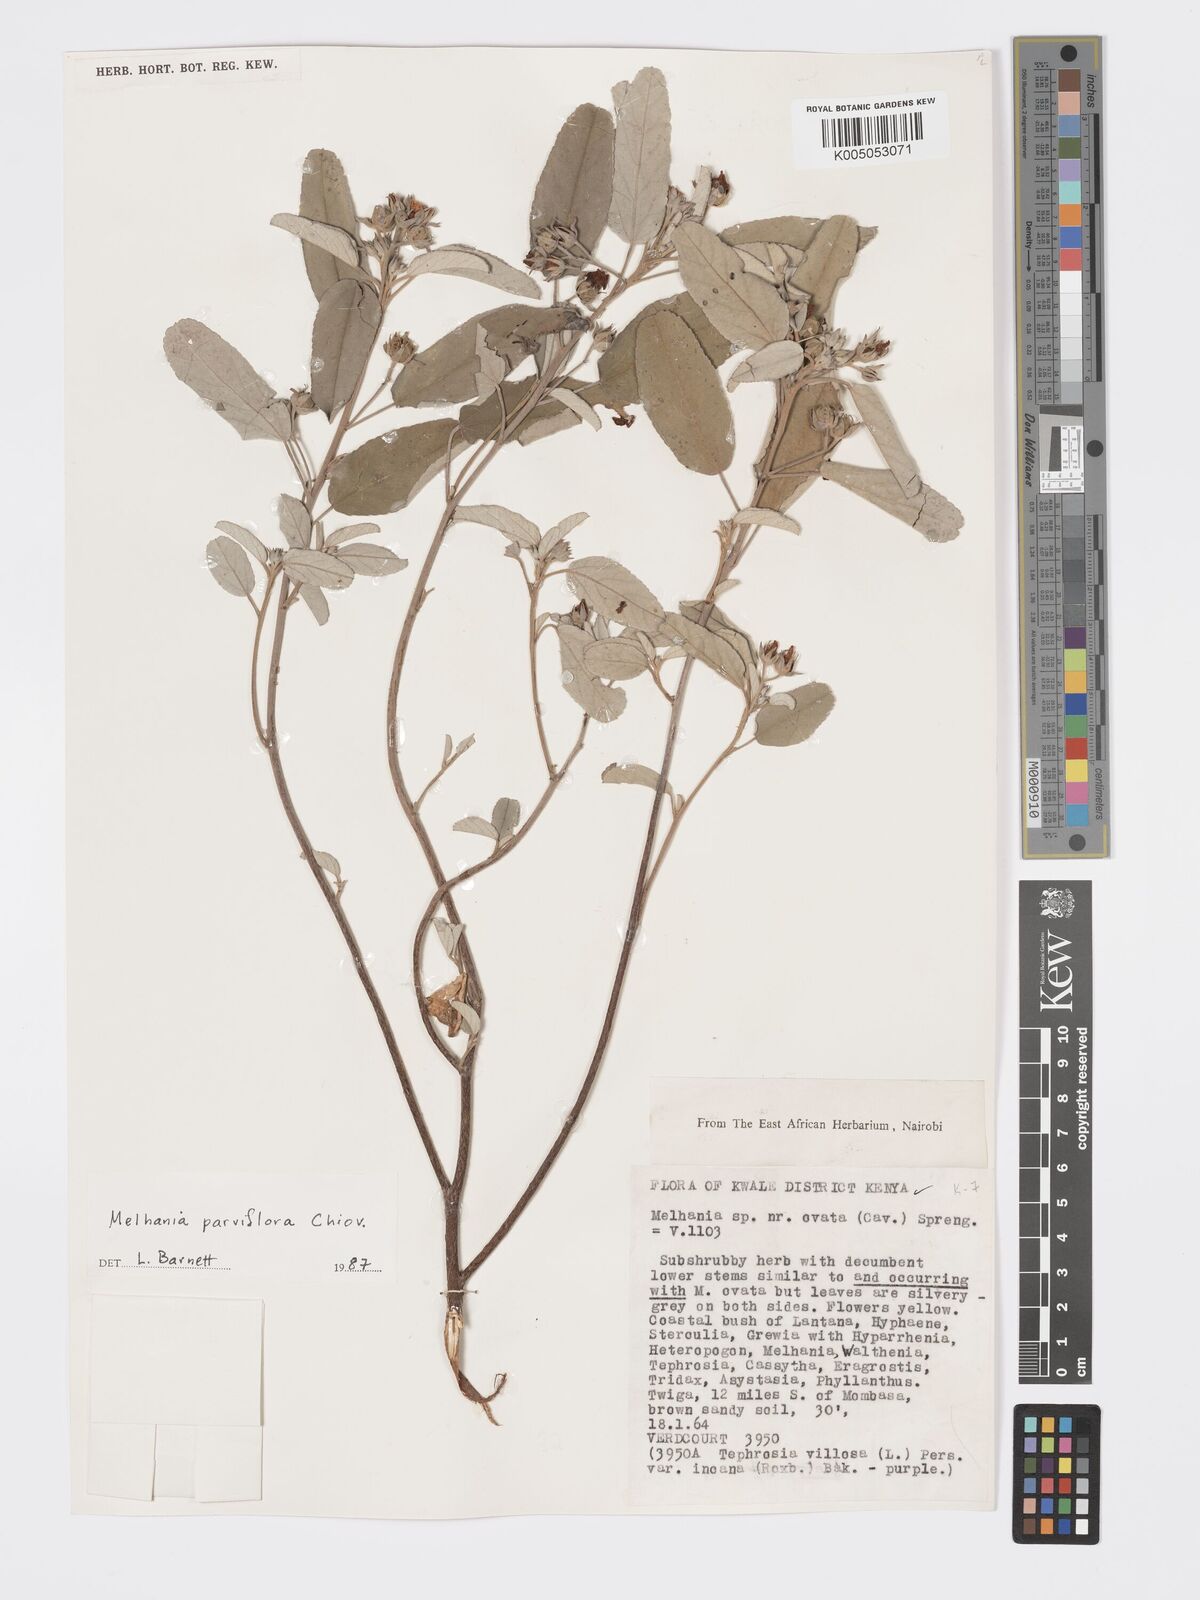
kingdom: Plantae
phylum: Tracheophyta
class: Magnoliopsida
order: Malvales
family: Malvaceae
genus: Melhania
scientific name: Melhania parviflora
